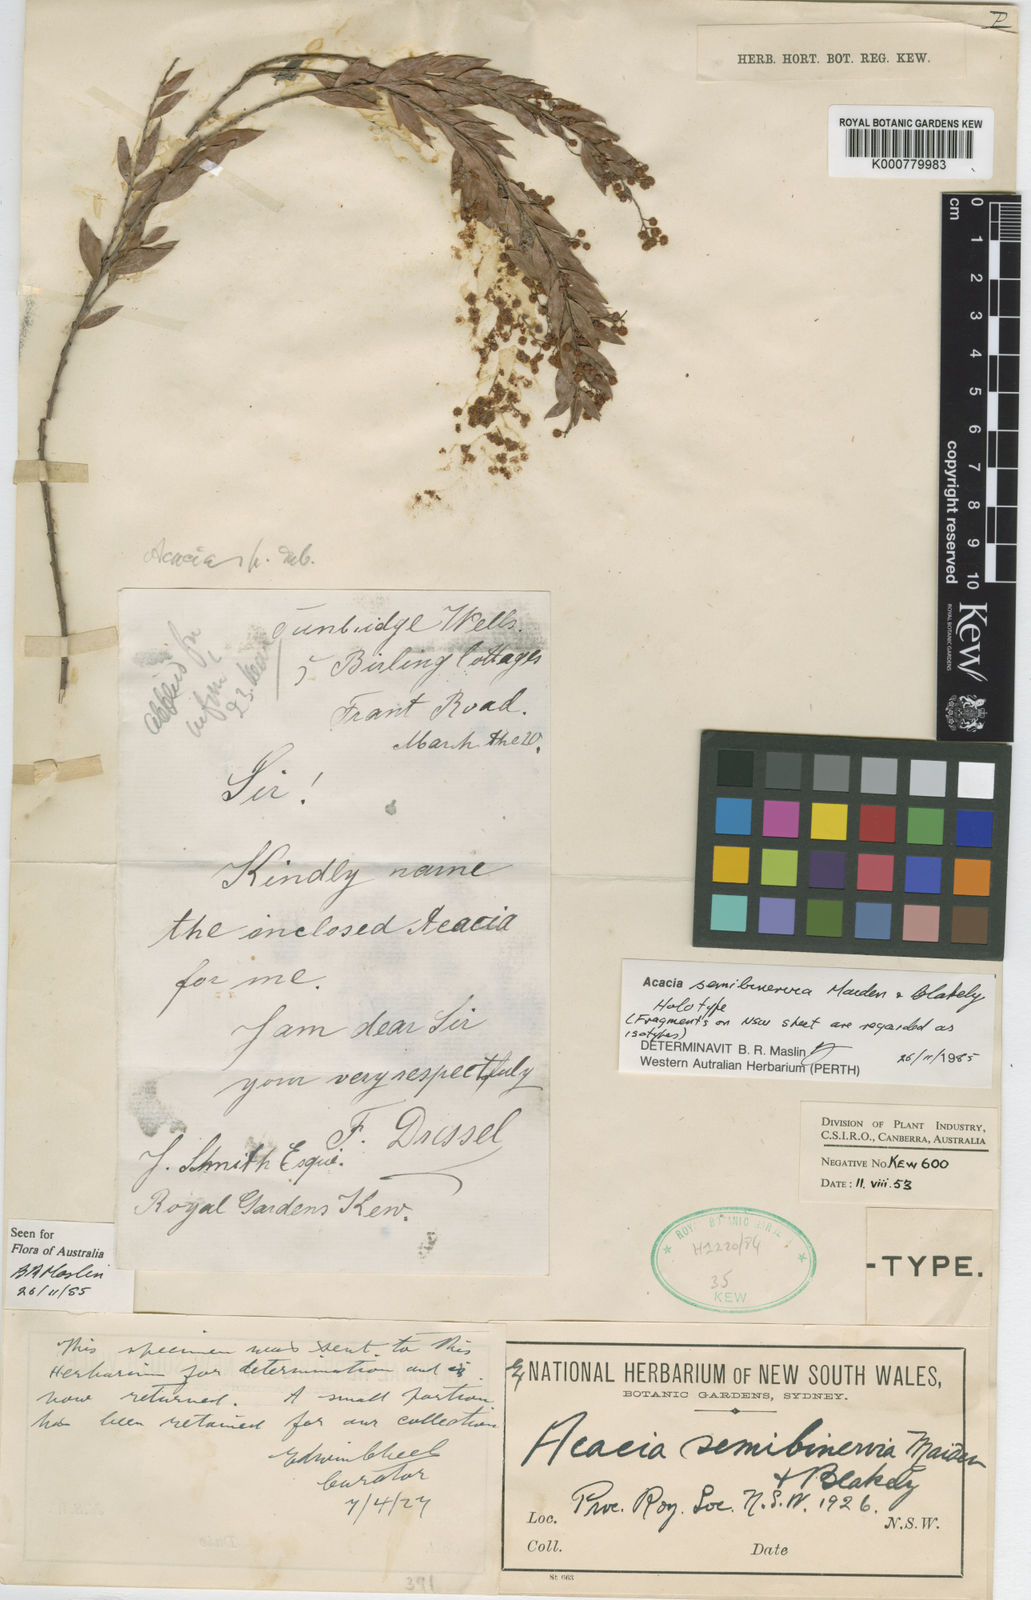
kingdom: Plantae
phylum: Tracheophyta
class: Magnoliopsida
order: Fabales
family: Fabaceae
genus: Acacia
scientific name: Acacia semibinervia
